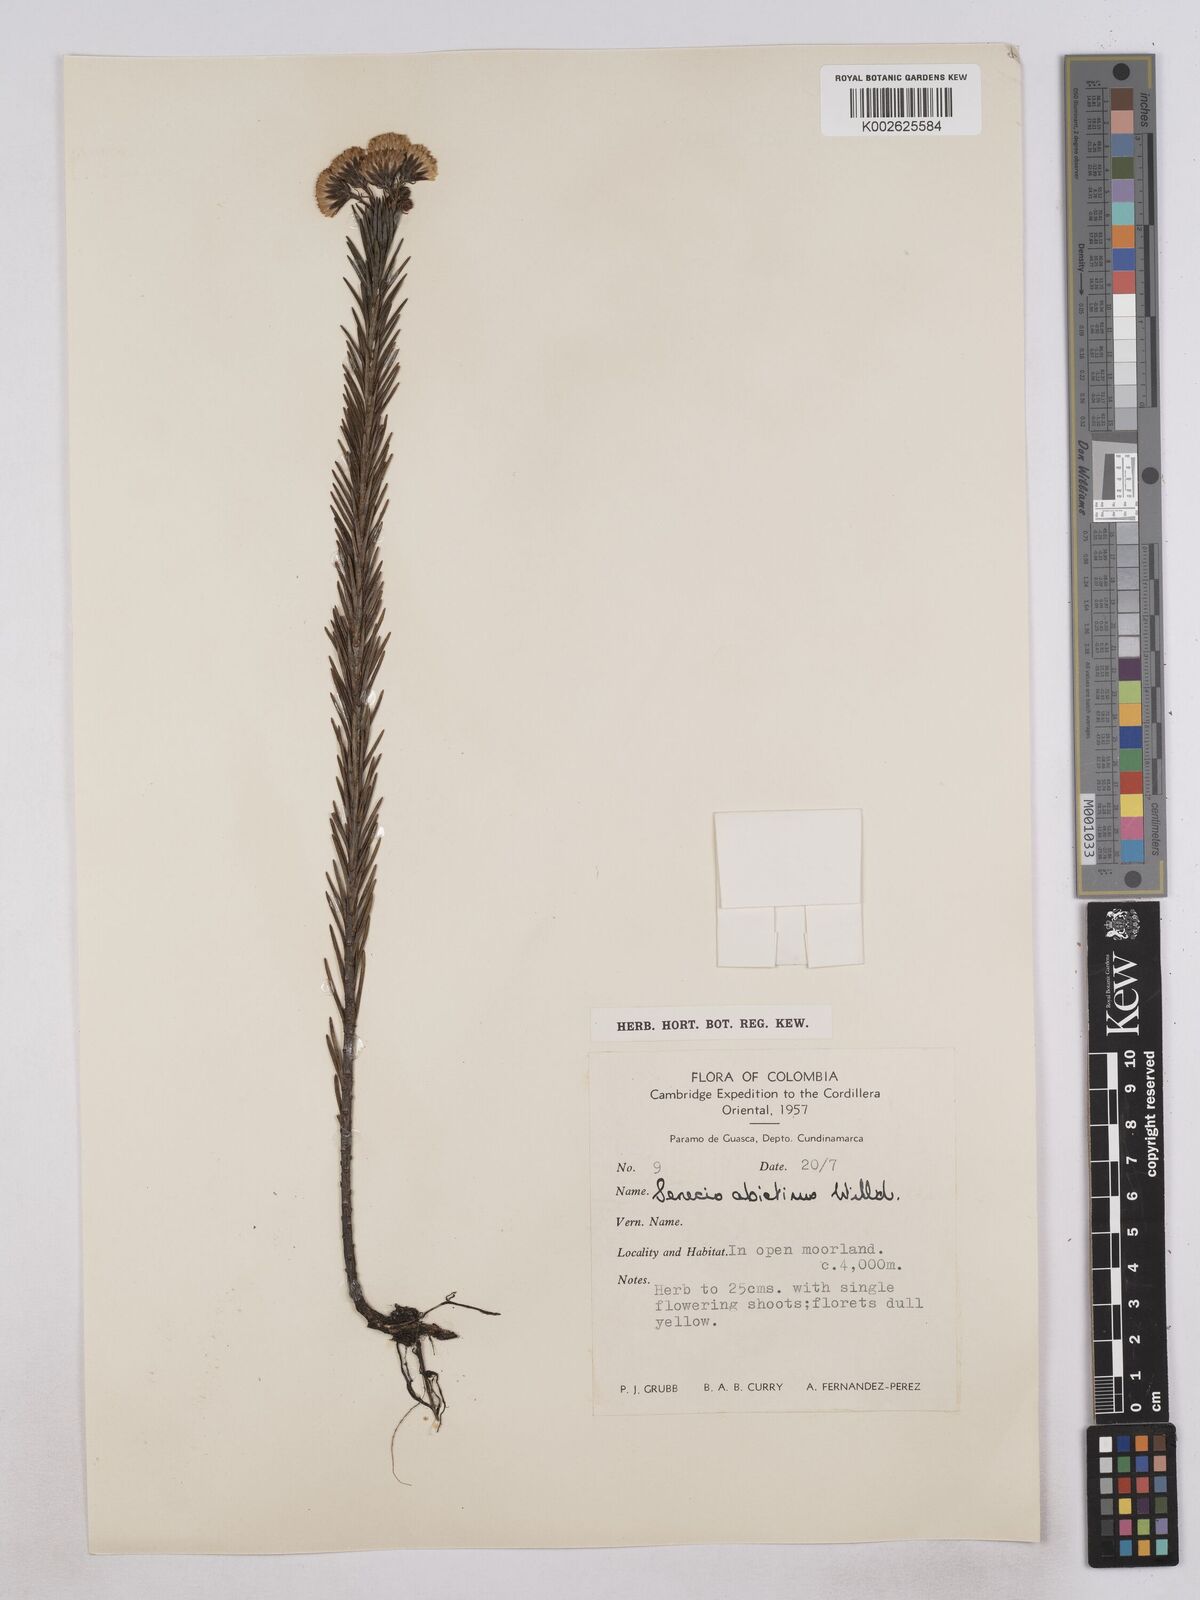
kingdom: Plantae
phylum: Tracheophyta
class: Magnoliopsida
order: Asterales
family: Asteraceae
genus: Monticalia
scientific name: Monticalia abietina
